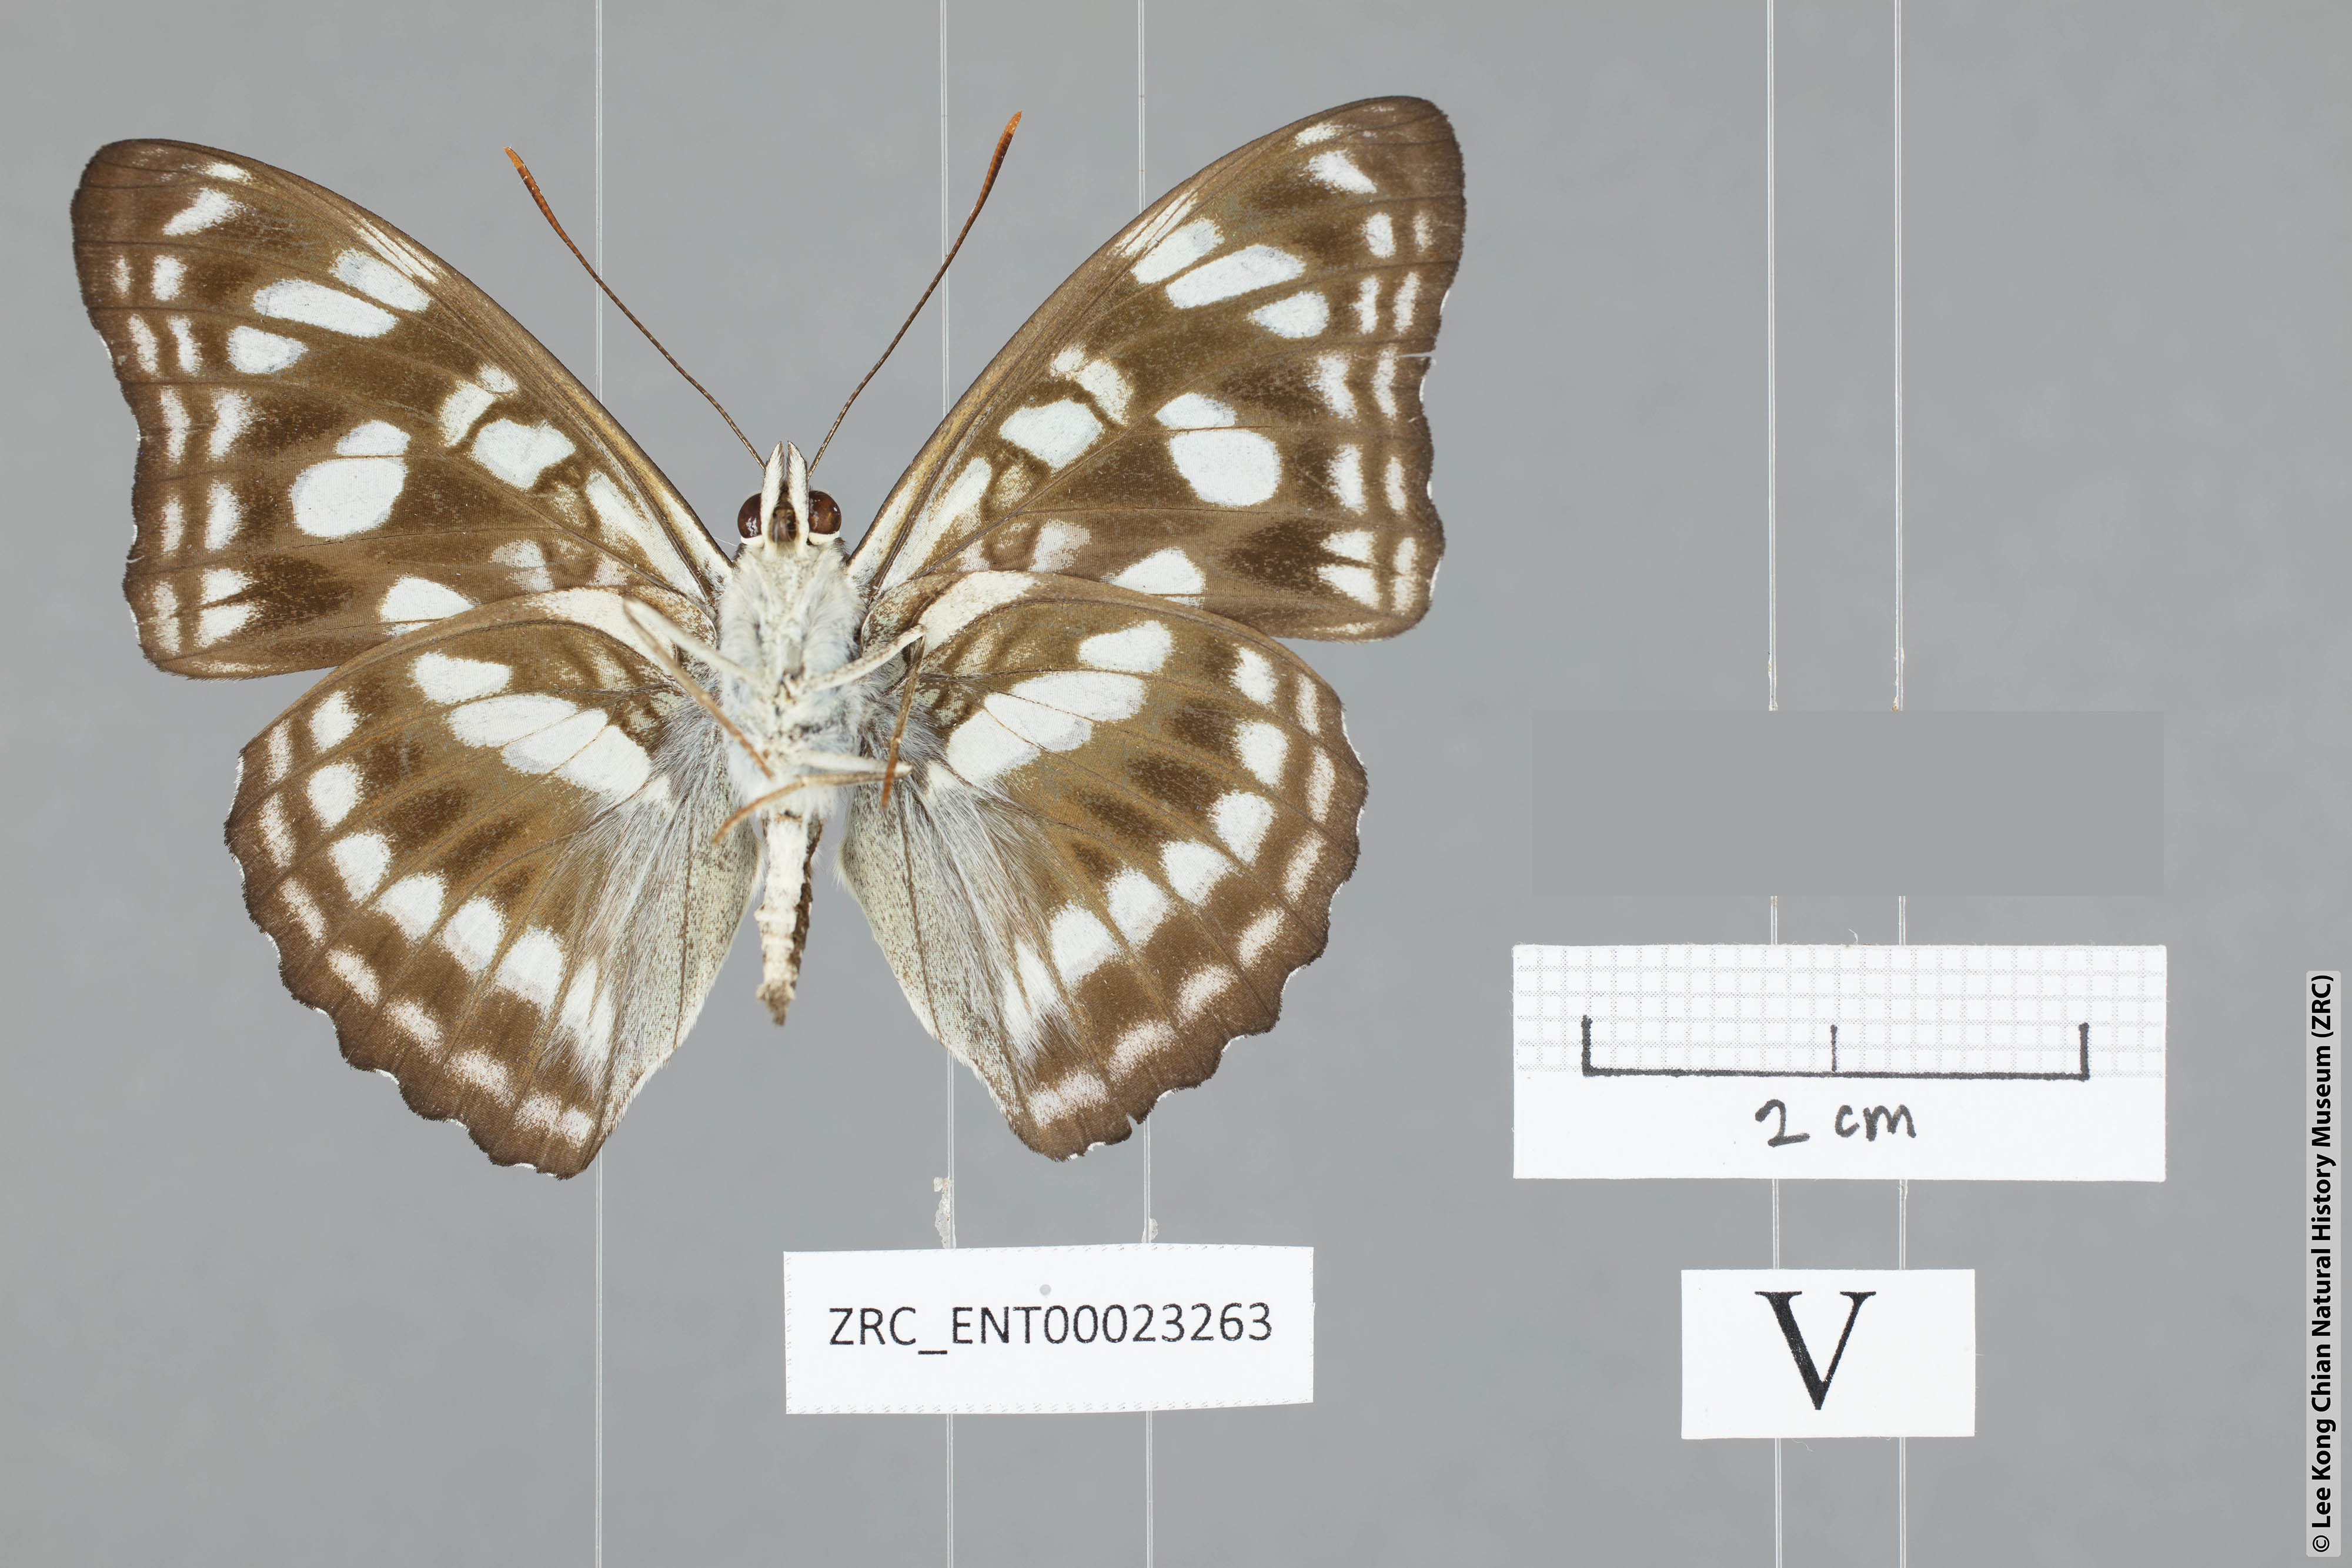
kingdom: Animalia
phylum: Arthropoda
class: Insecta
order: Lepidoptera
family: Nymphalidae
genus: Parathyma
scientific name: Parathyma ranga
